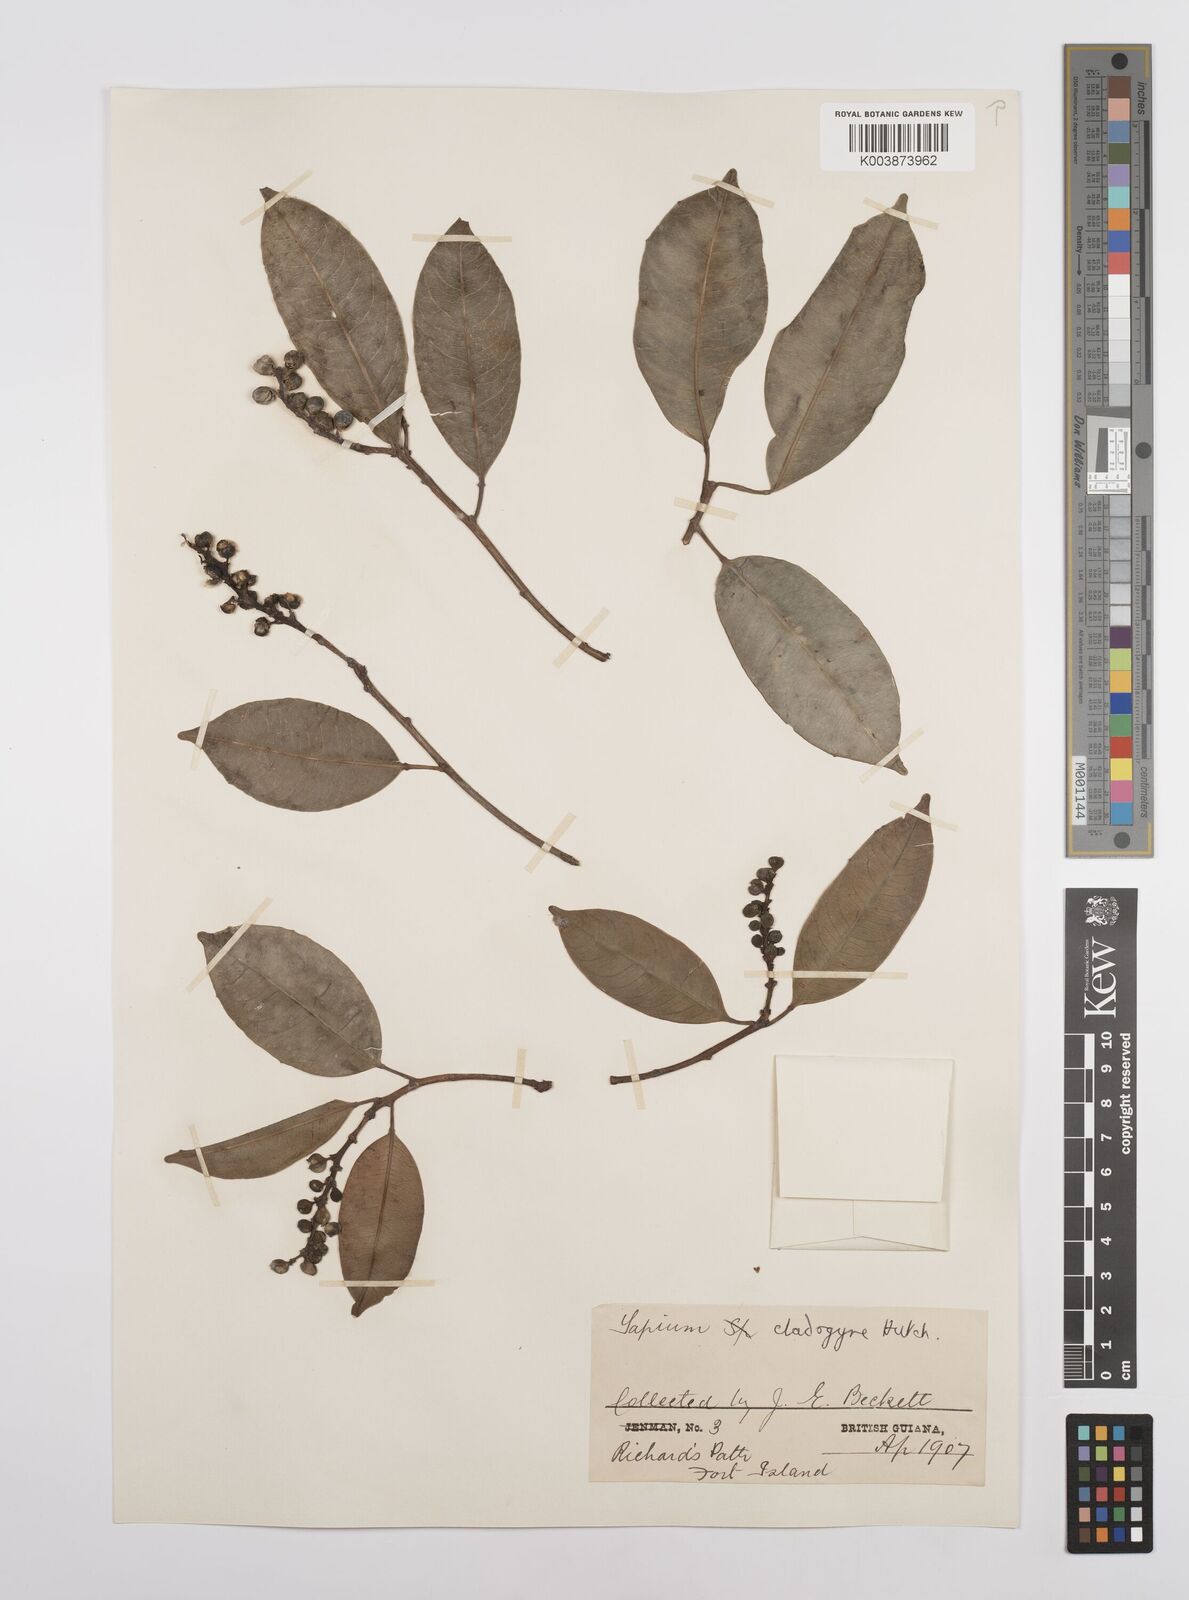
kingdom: Plantae
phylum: Tracheophyta
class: Magnoliopsida
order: Malpighiales
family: Euphorbiaceae
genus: Sapium
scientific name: Sapium jenmannii
